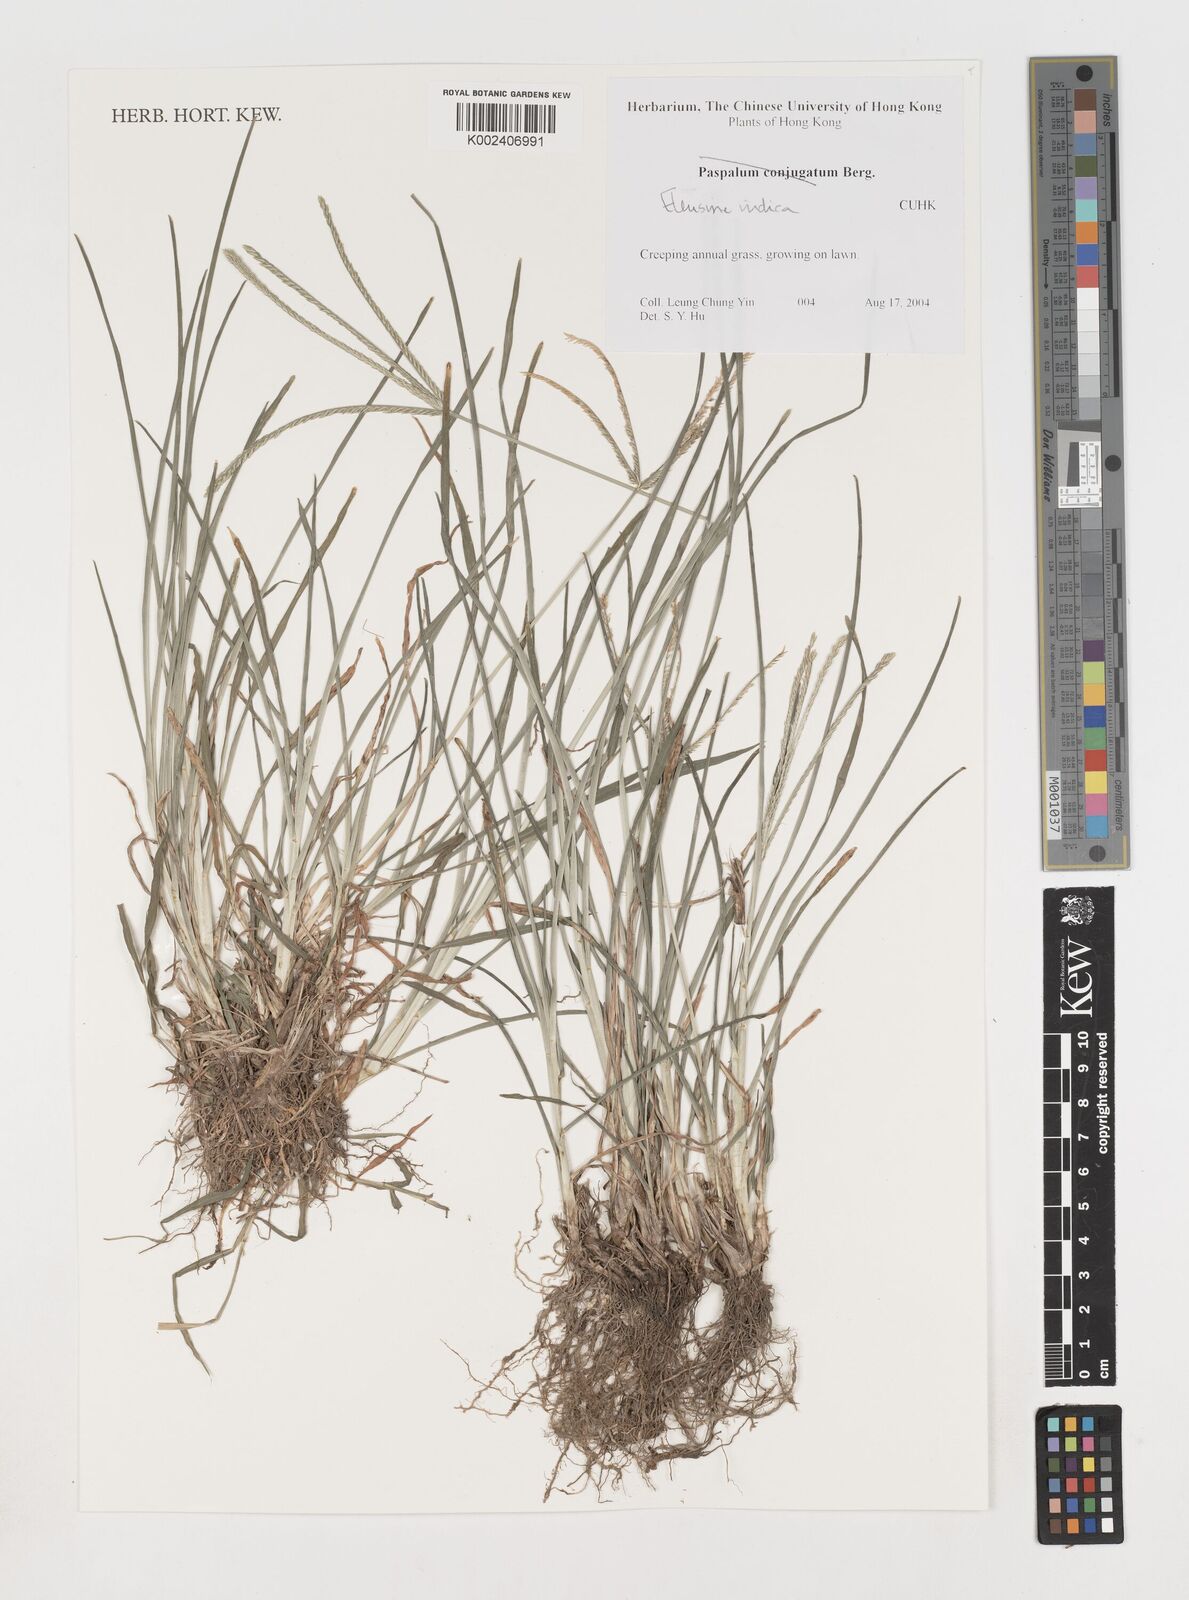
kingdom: Plantae
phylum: Tracheophyta
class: Liliopsida
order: Poales
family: Poaceae
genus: Eleusine
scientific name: Eleusine indica
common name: Yard-grass
